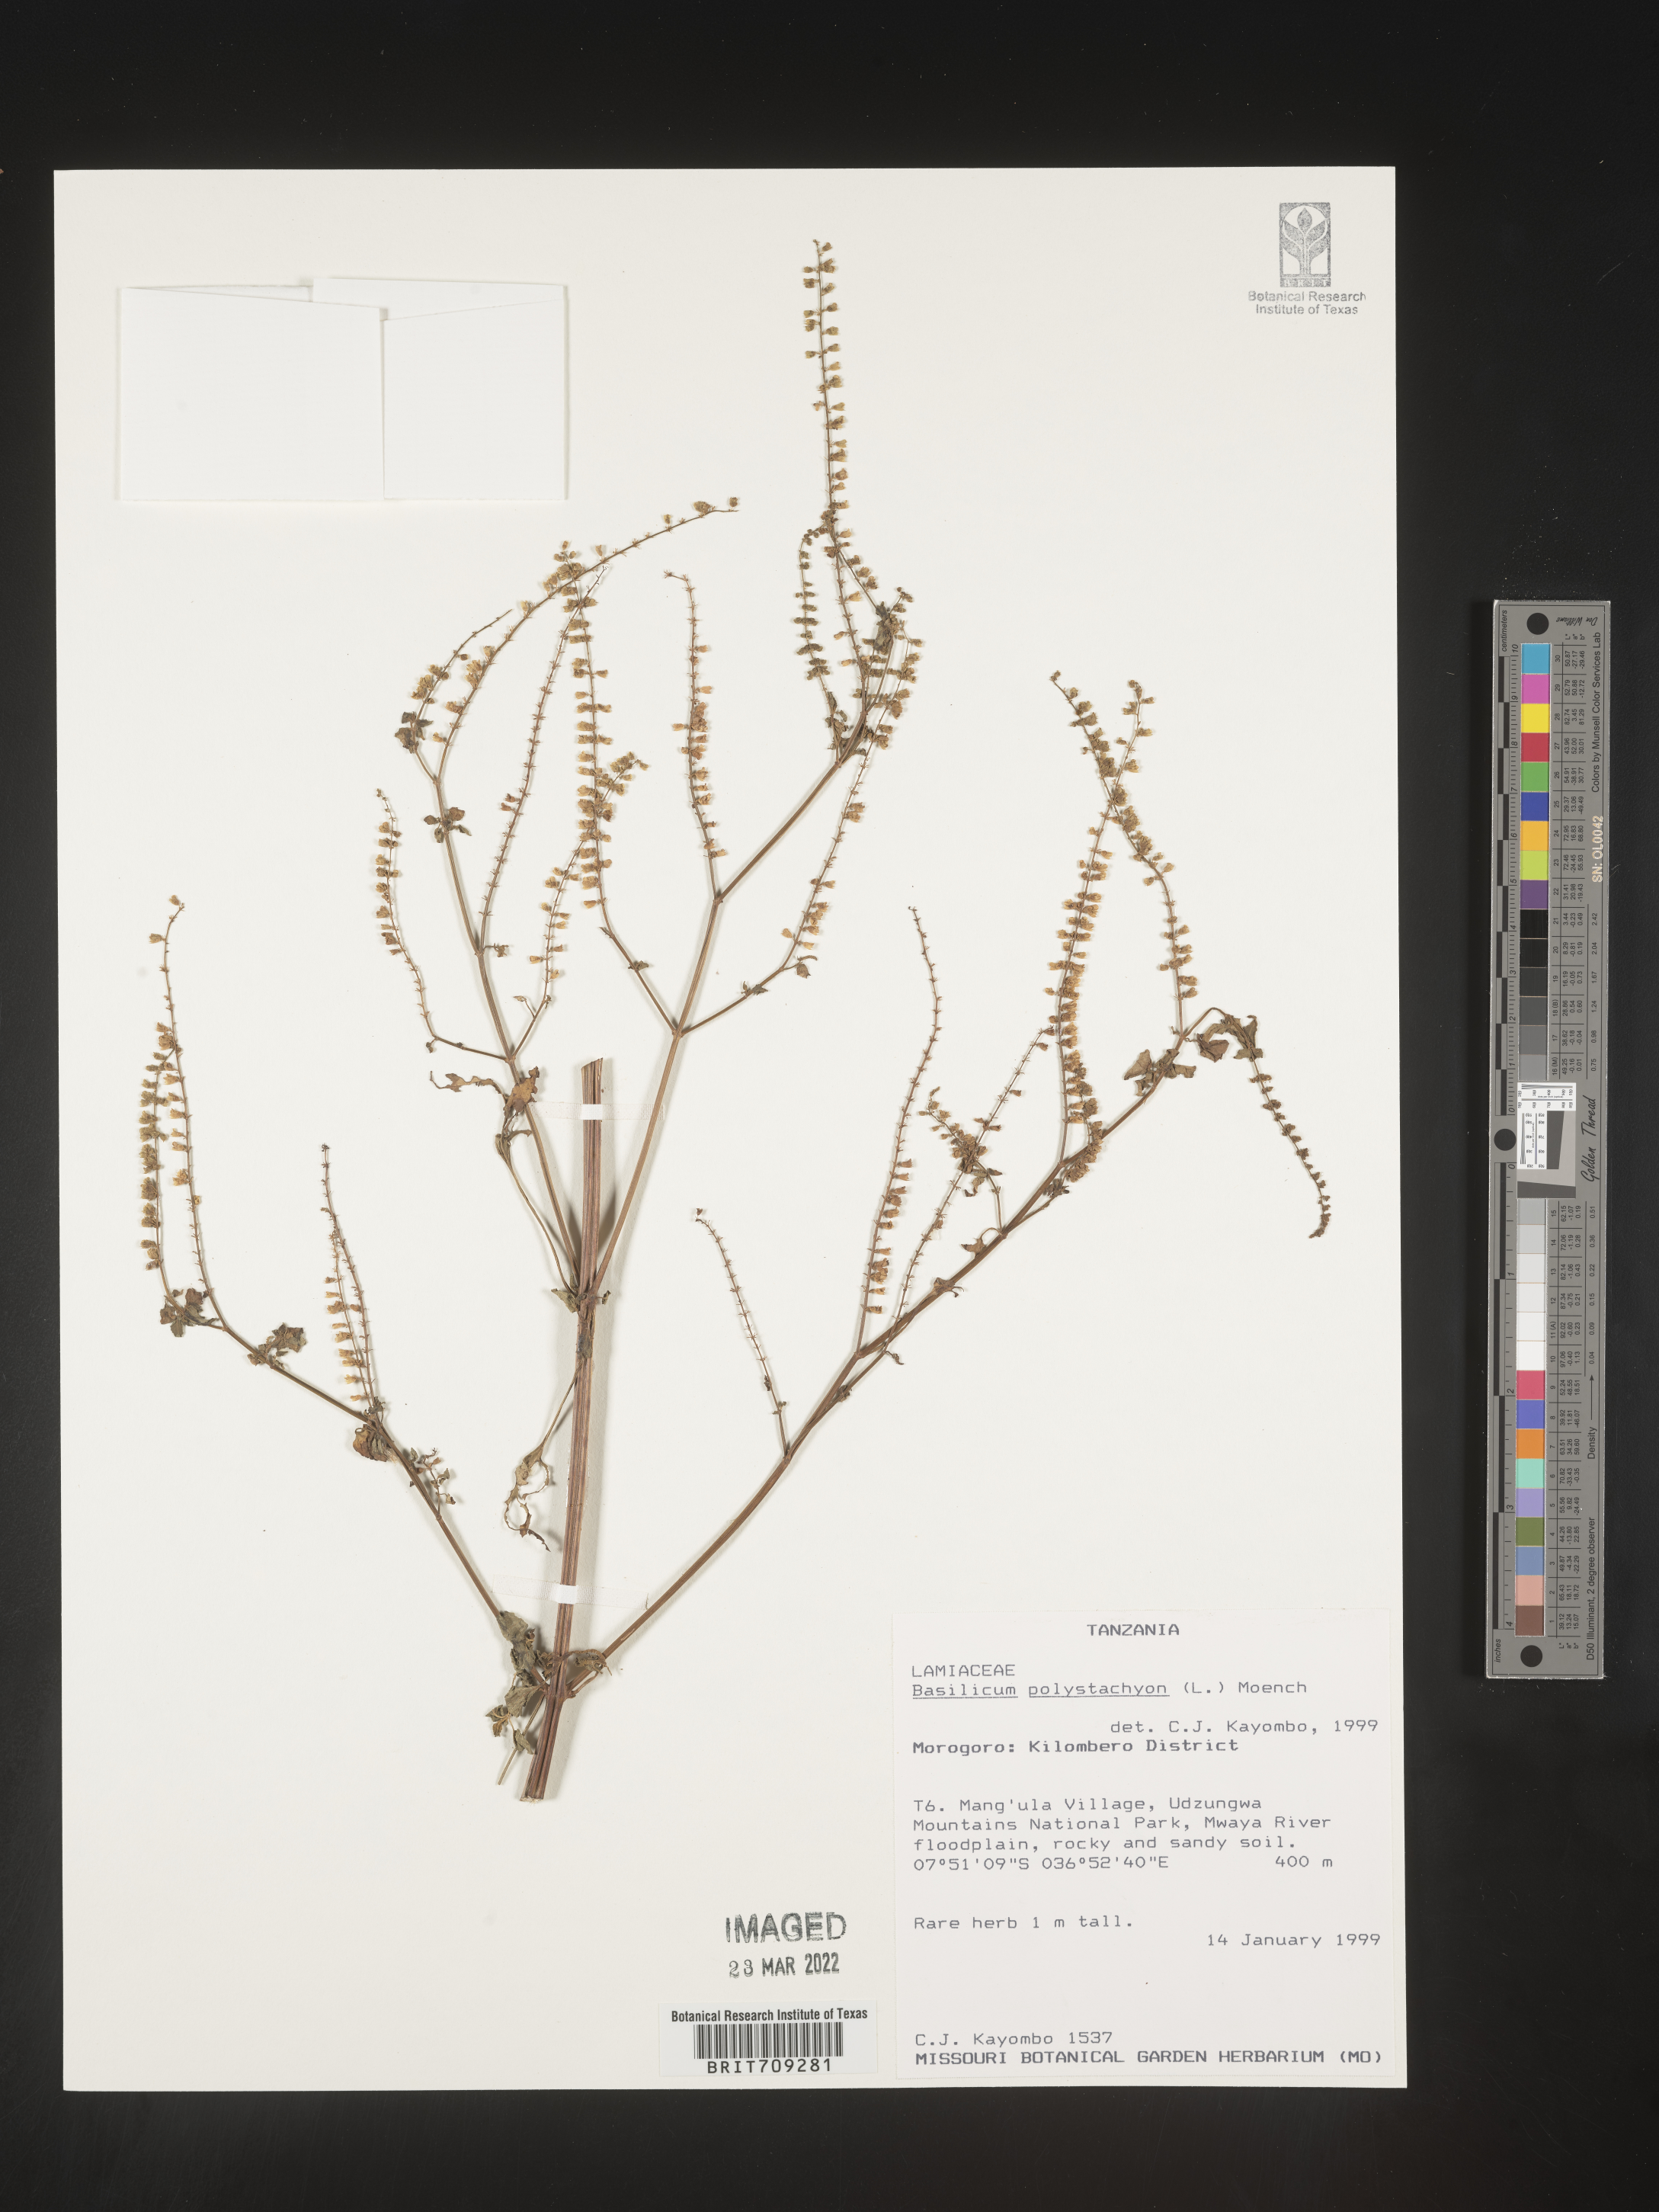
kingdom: Plantae
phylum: Tracheophyta
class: Magnoliopsida
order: Lamiales
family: Lamiaceae
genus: Basilicum
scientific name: Basilicum
